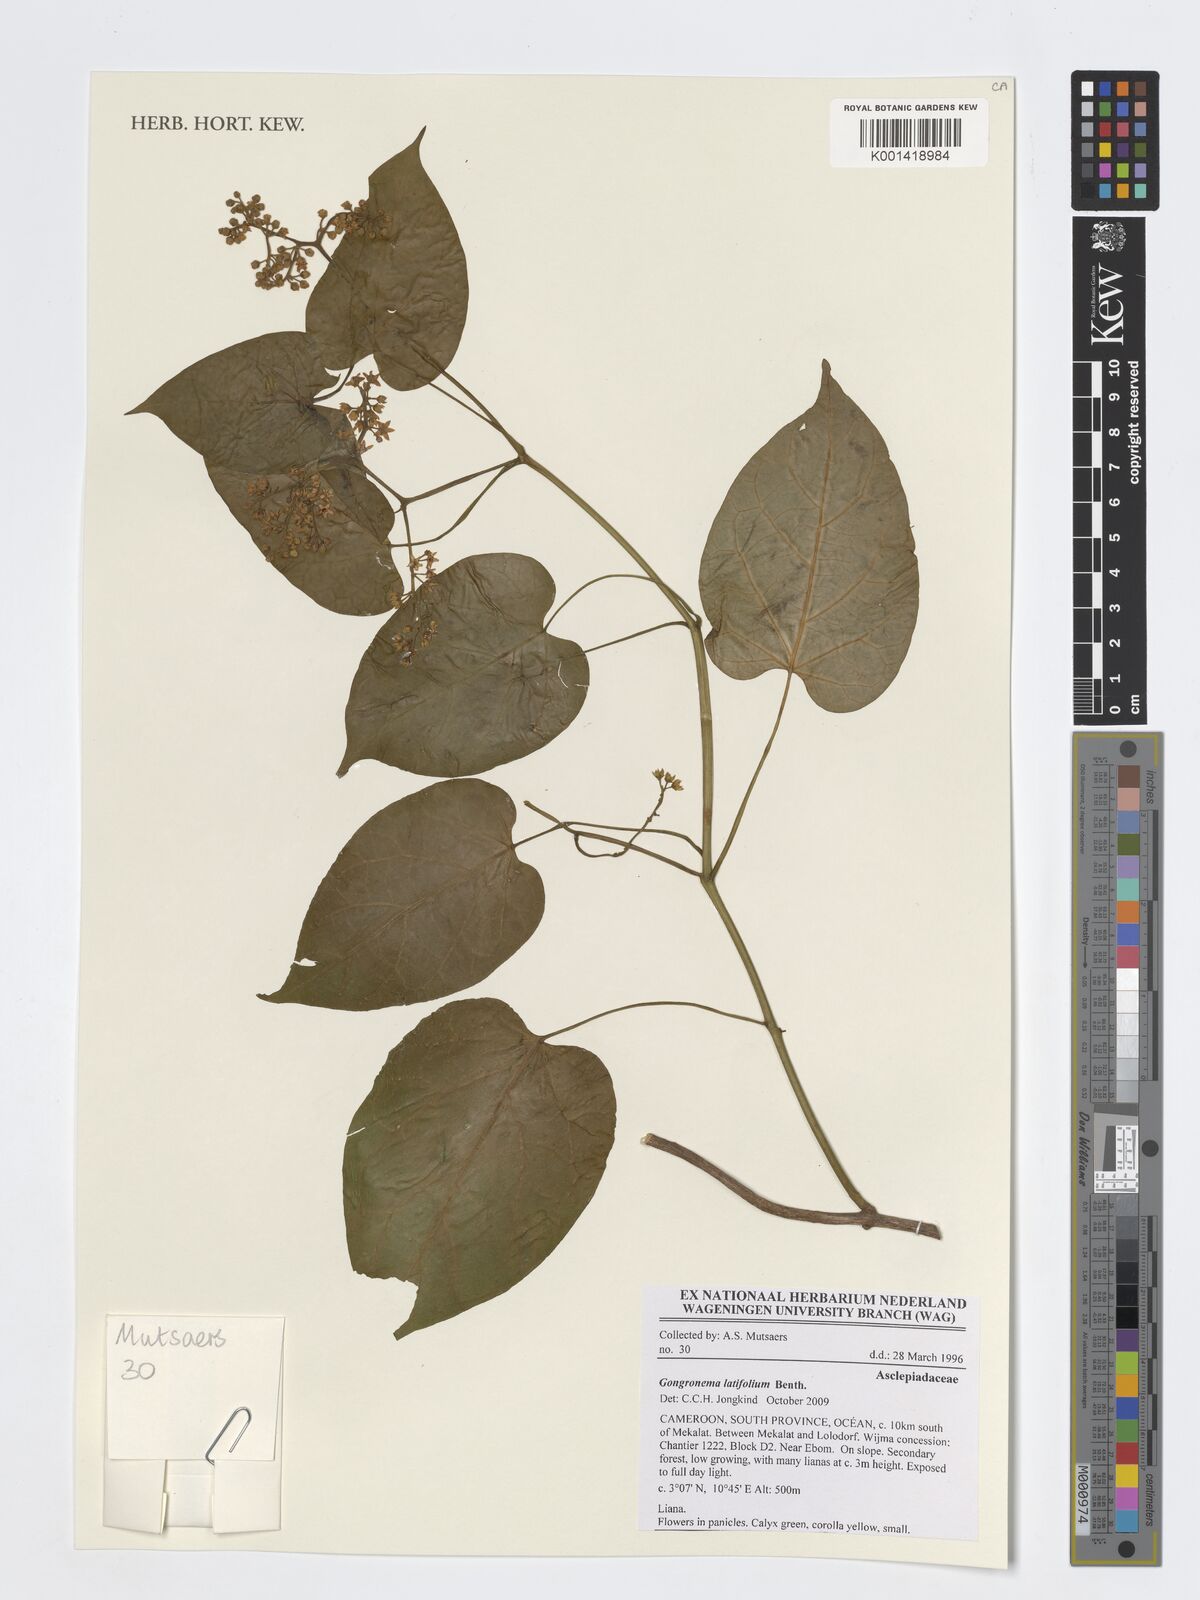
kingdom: Plantae
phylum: Tracheophyta
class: Magnoliopsida
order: Gentianales
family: Apocynaceae
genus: Gongronemopsis
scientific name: Gongronemopsis latifolia
